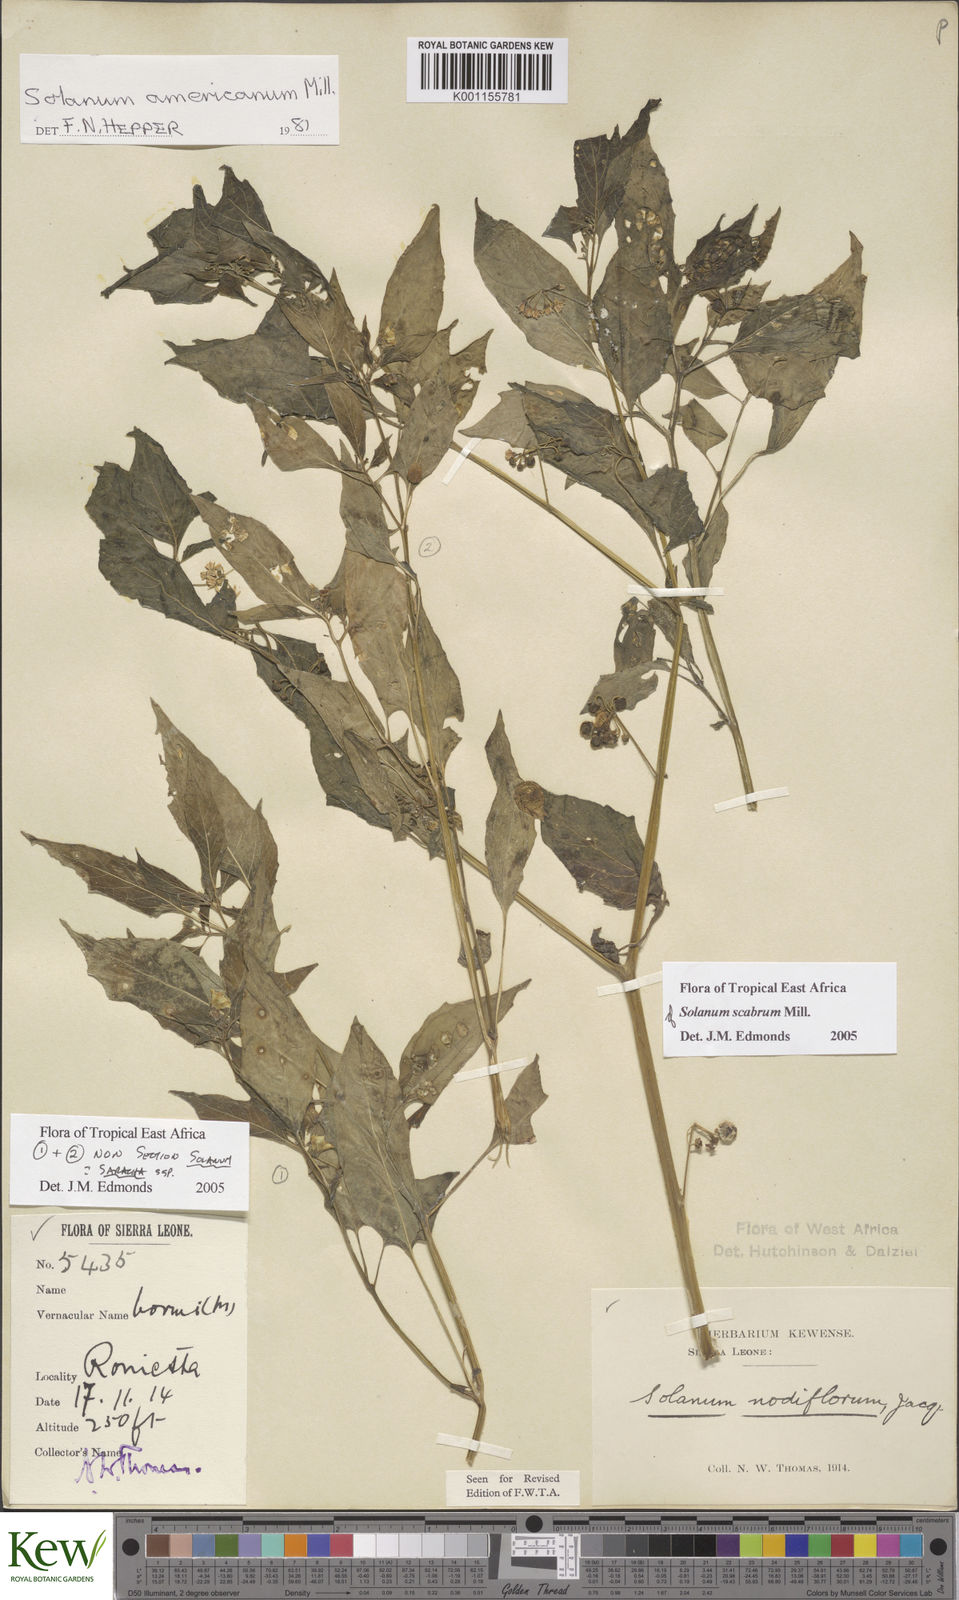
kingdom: Plantae
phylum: Tracheophyta
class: Magnoliopsida
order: Solanales
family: Solanaceae
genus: Solanum
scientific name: Solanum tarderemotum
